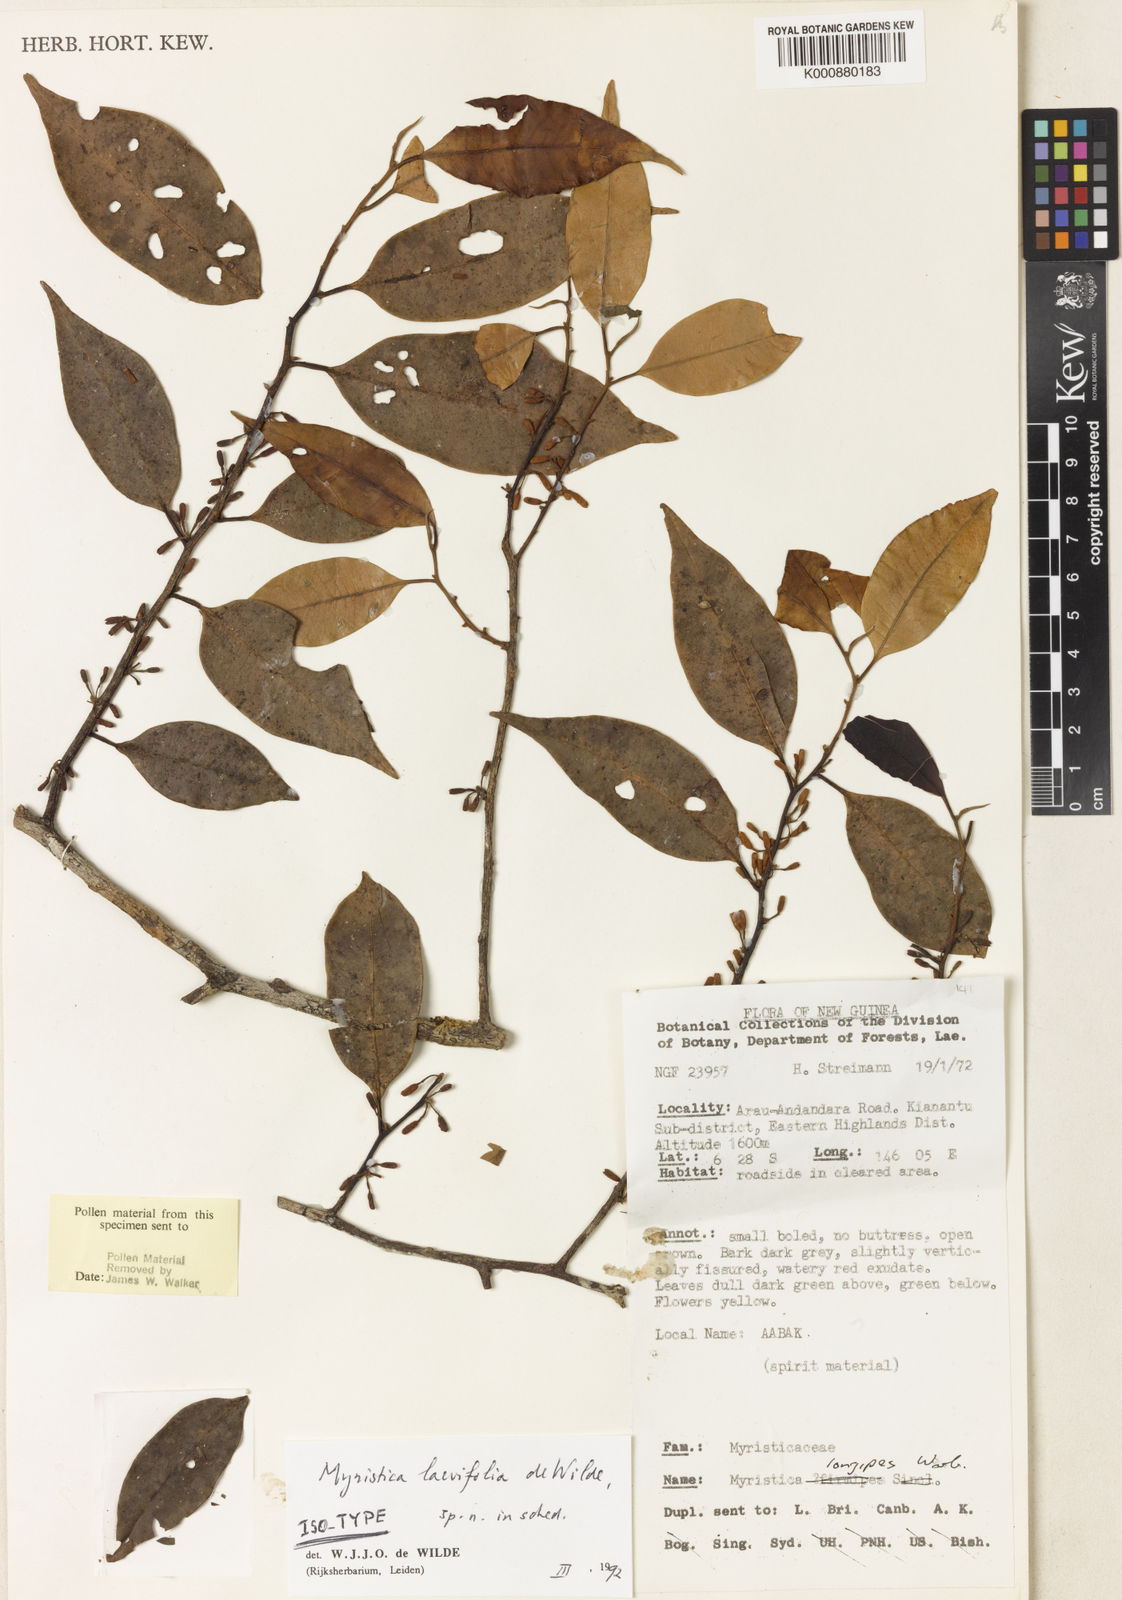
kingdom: Plantae
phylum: Tracheophyta
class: Magnoliopsida
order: Magnoliales
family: Myristicaceae
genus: Myristica
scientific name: Myristica laevifolia
